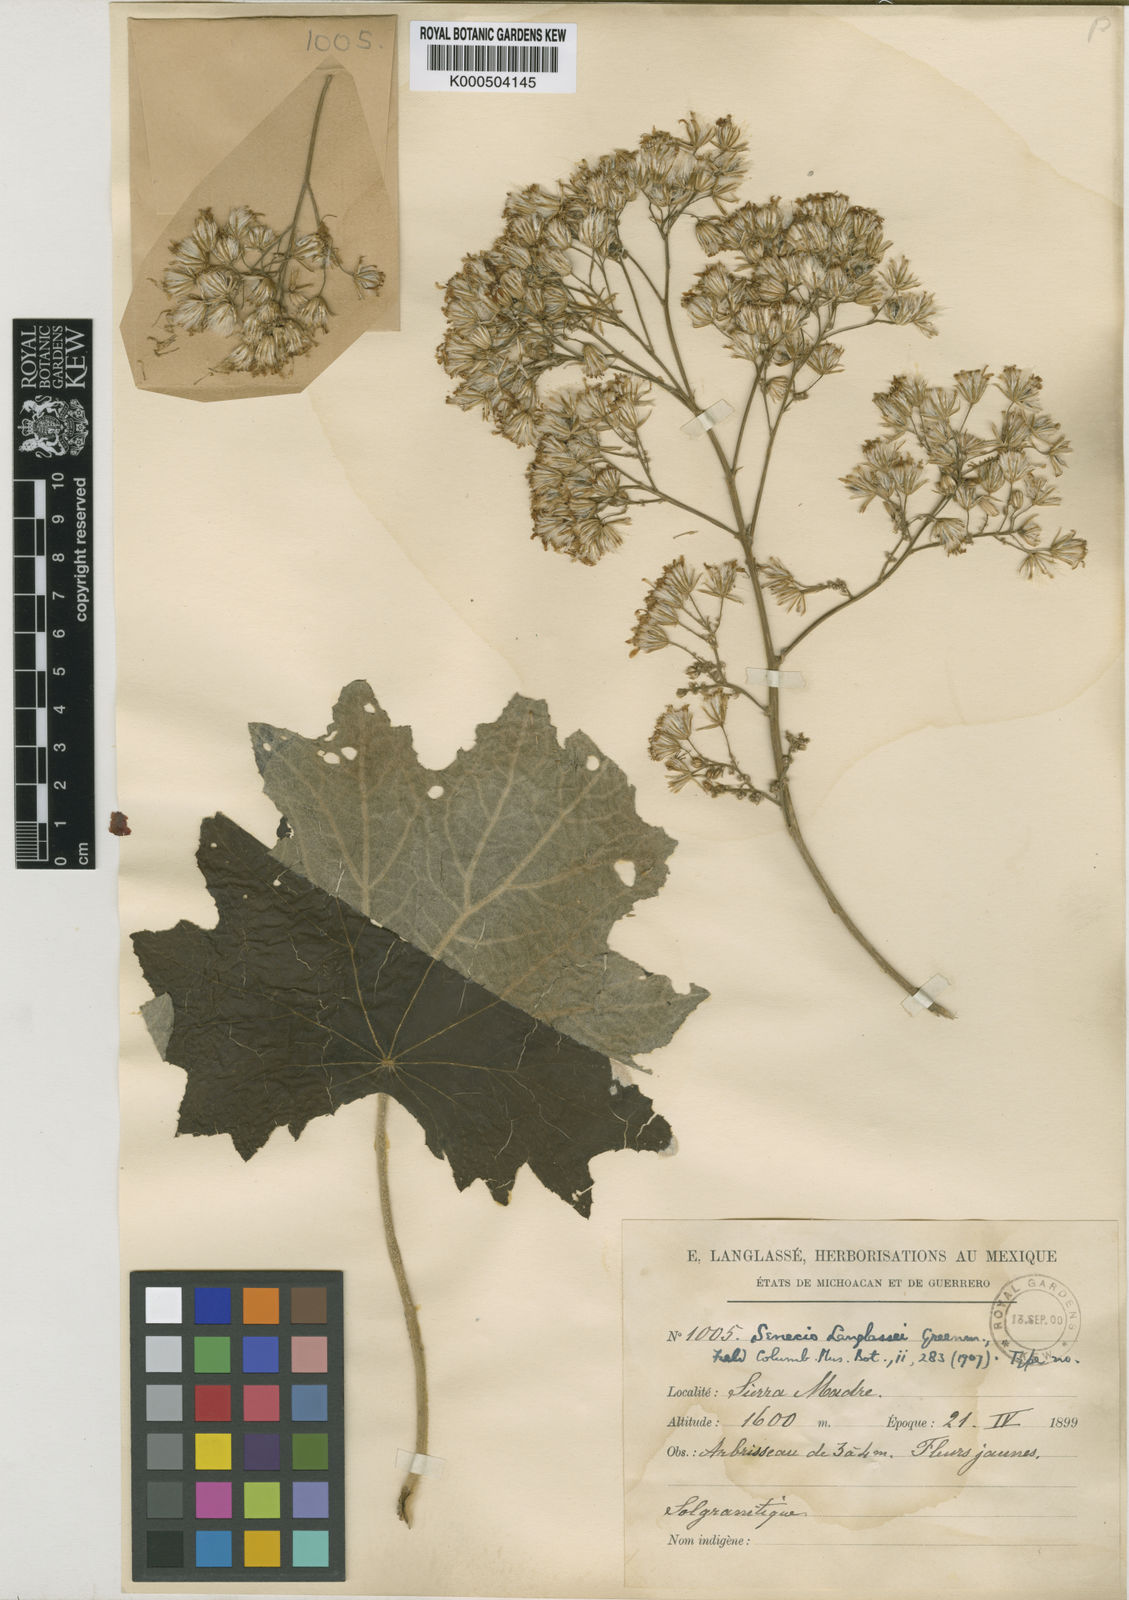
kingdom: Plantae
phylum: Tracheophyta
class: Magnoliopsida
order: Asterales
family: Asteraceae
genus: Vernonanthura
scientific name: Vernonanthura alamanii
